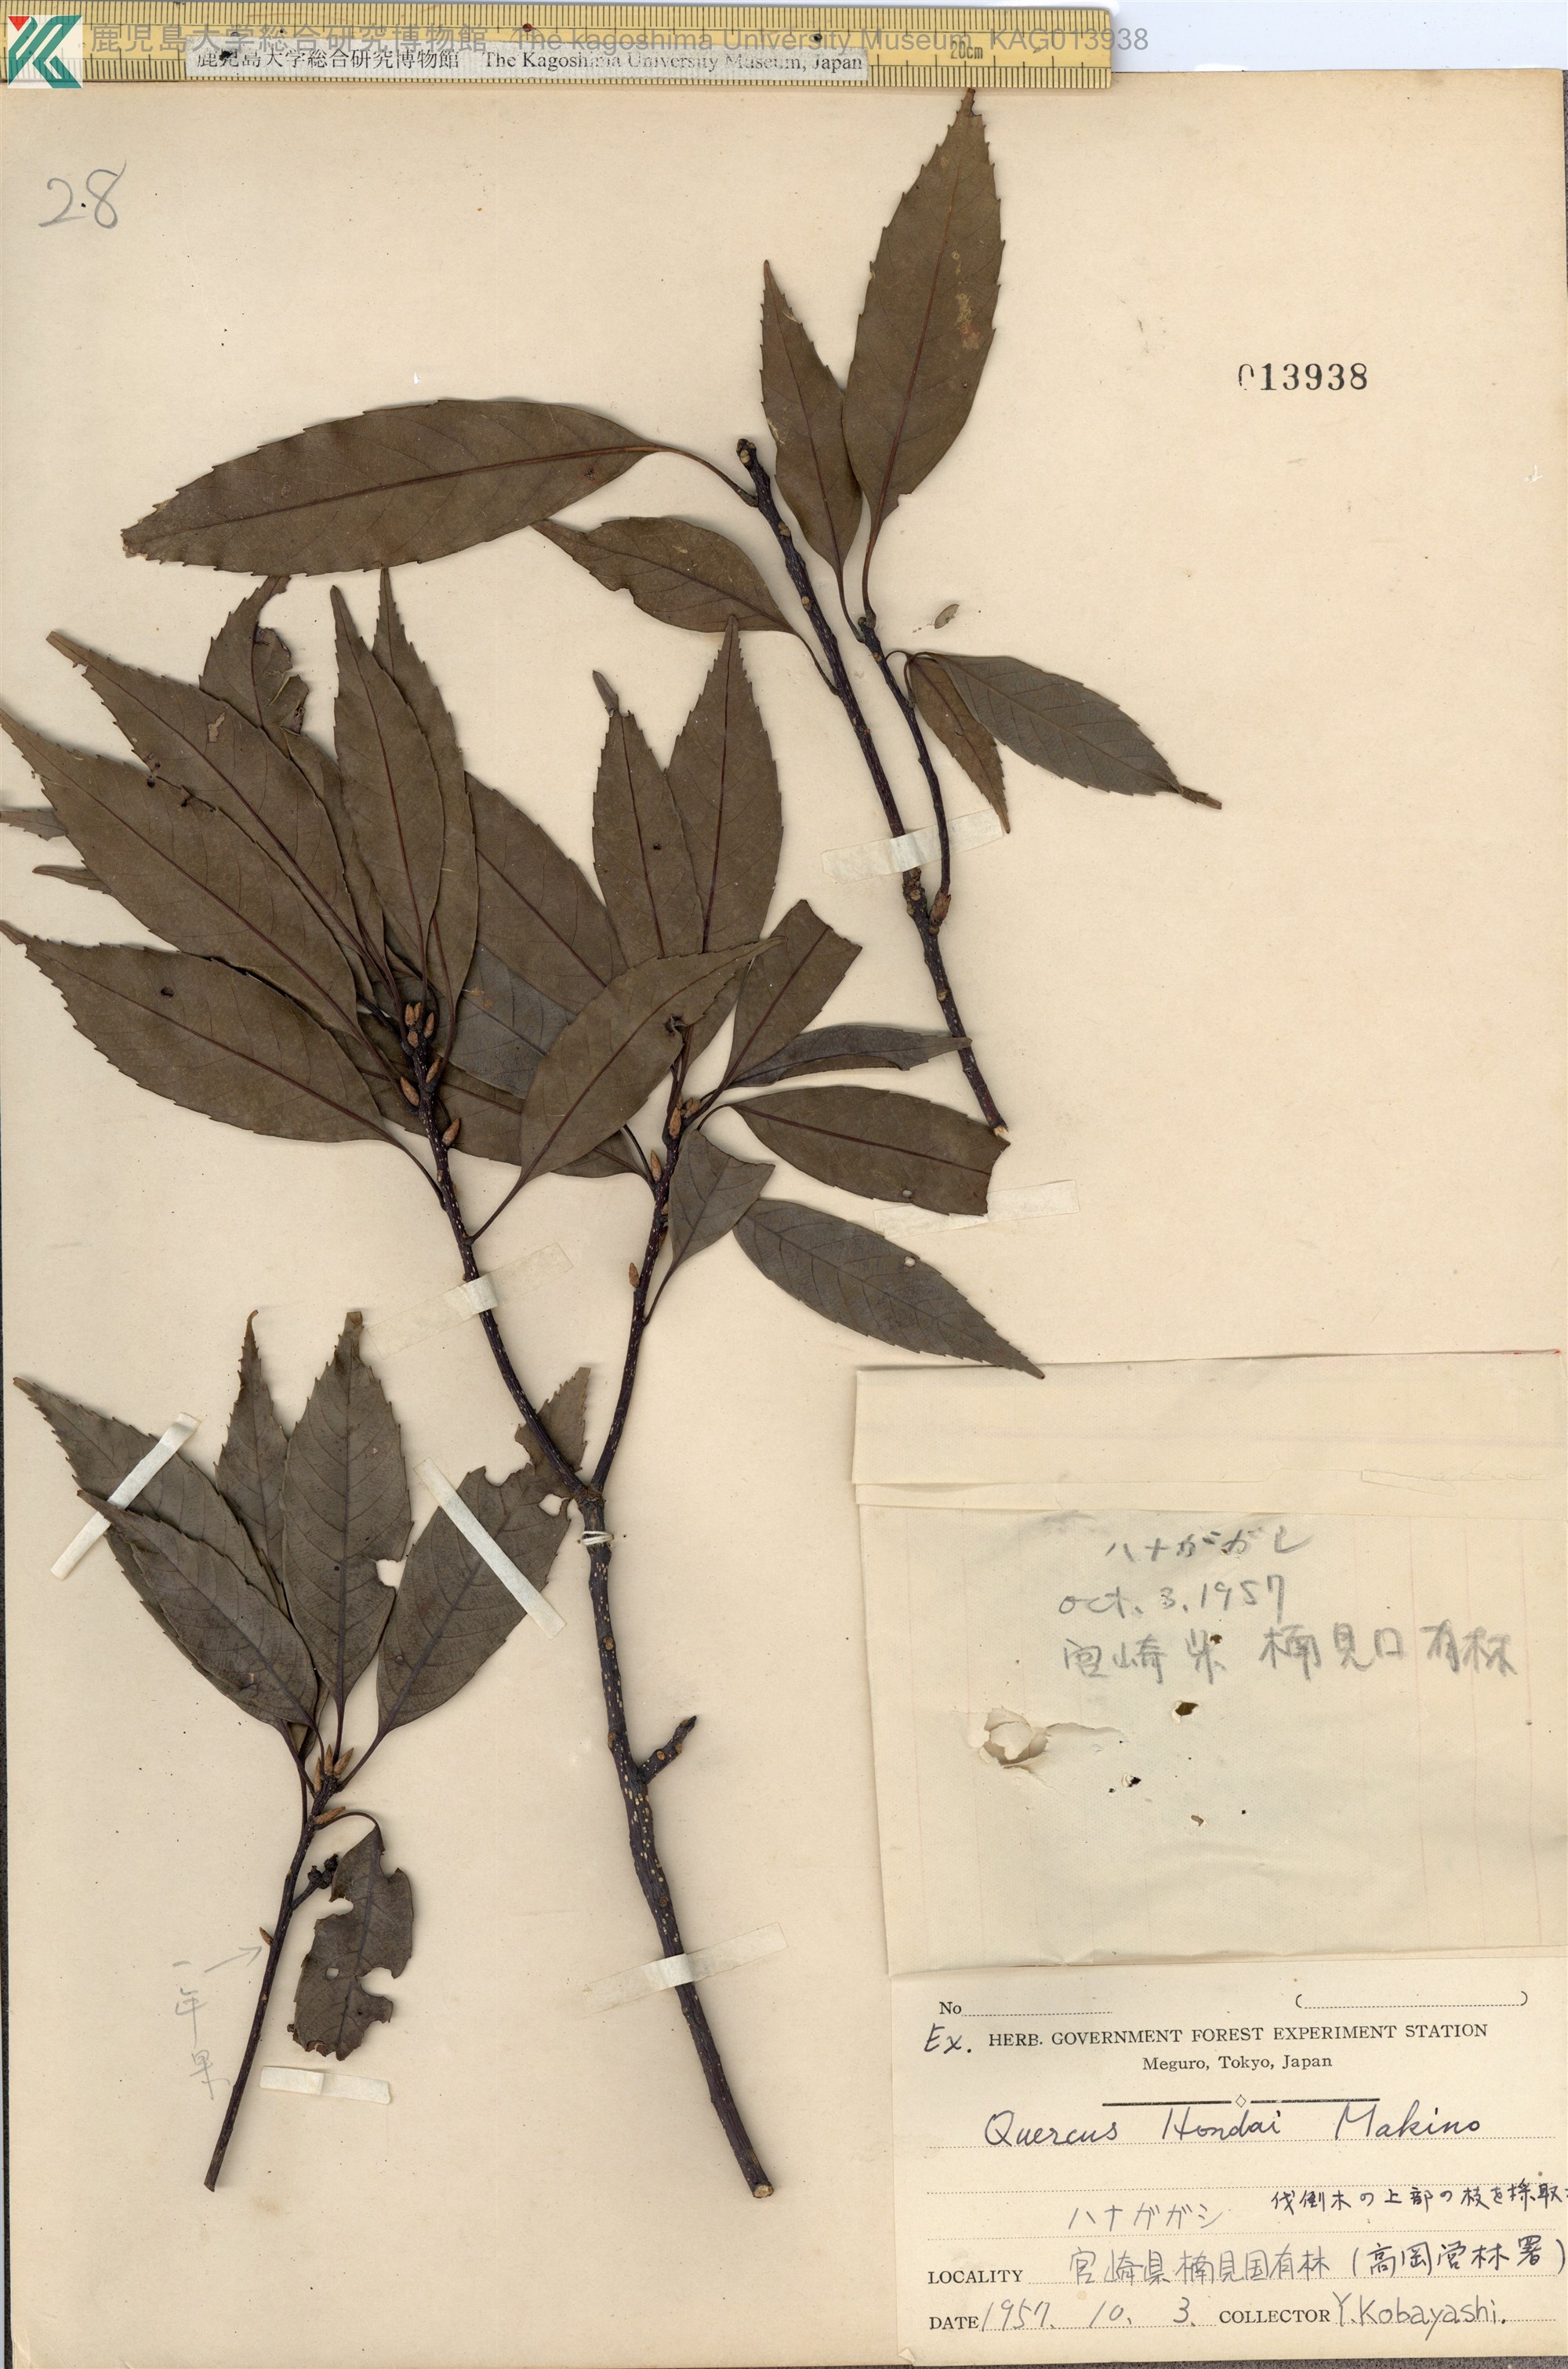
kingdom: Plantae
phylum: Tracheophyta
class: Magnoliopsida
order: Fagales
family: Fagaceae
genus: Quercus
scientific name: Quercus hondae
